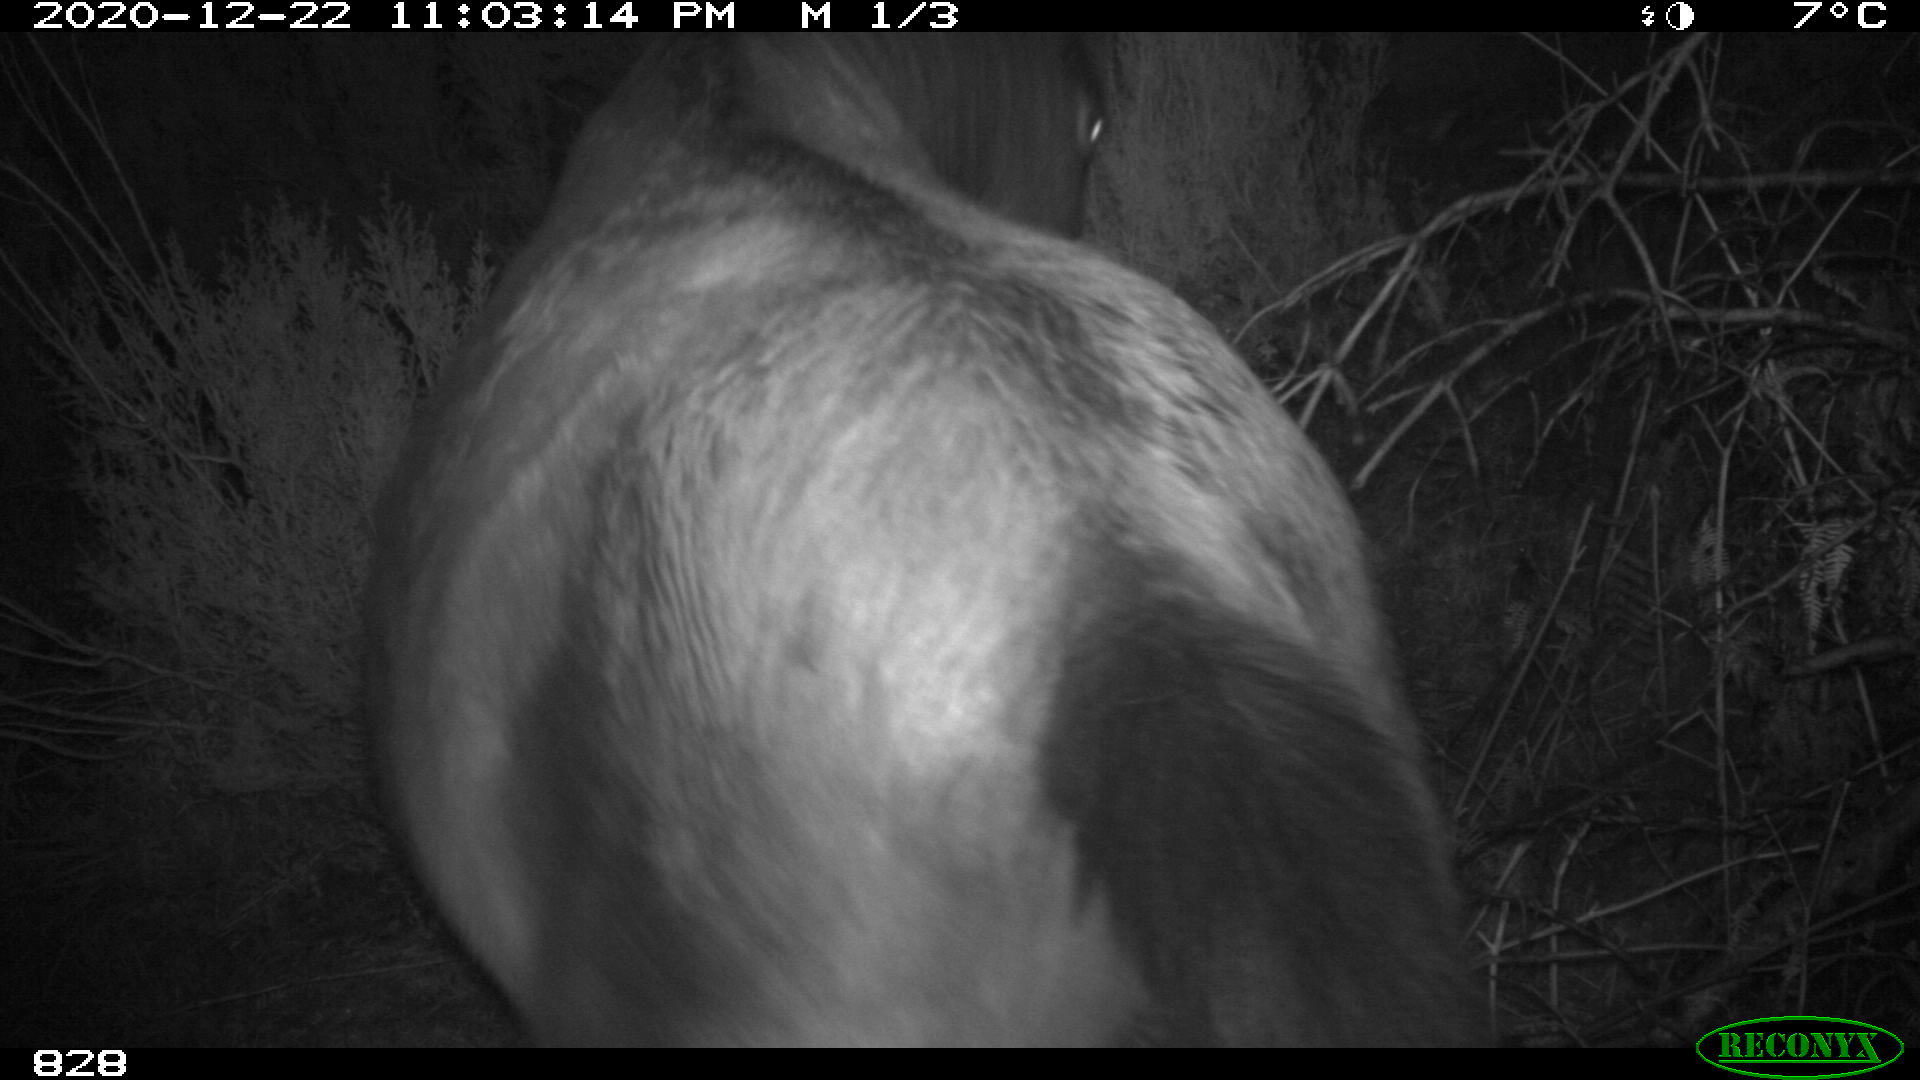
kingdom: Animalia
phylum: Chordata
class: Mammalia
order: Perissodactyla
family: Equidae
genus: Equus
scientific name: Equus caballus
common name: Horse
